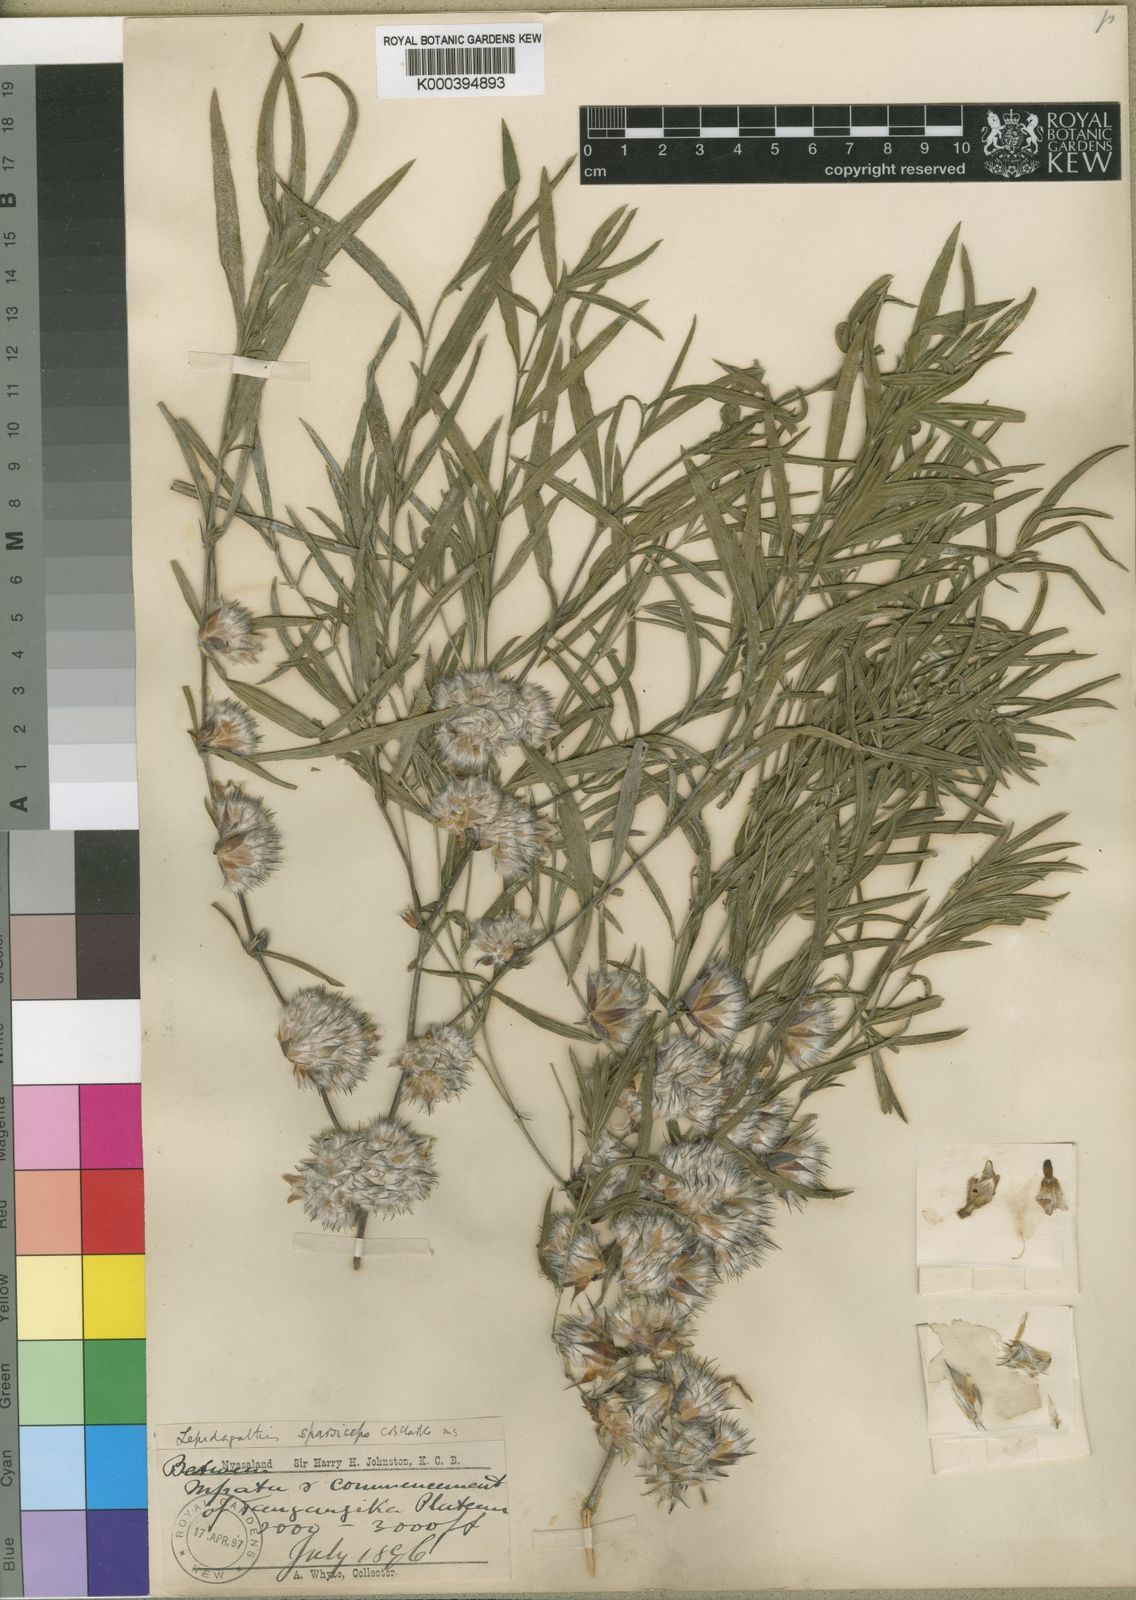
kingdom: Plantae
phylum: Tracheophyta
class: Magnoliopsida
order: Lamiales
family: Acanthaceae
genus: Lepidagathis
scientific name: Lepidagathis lanatoglabra
